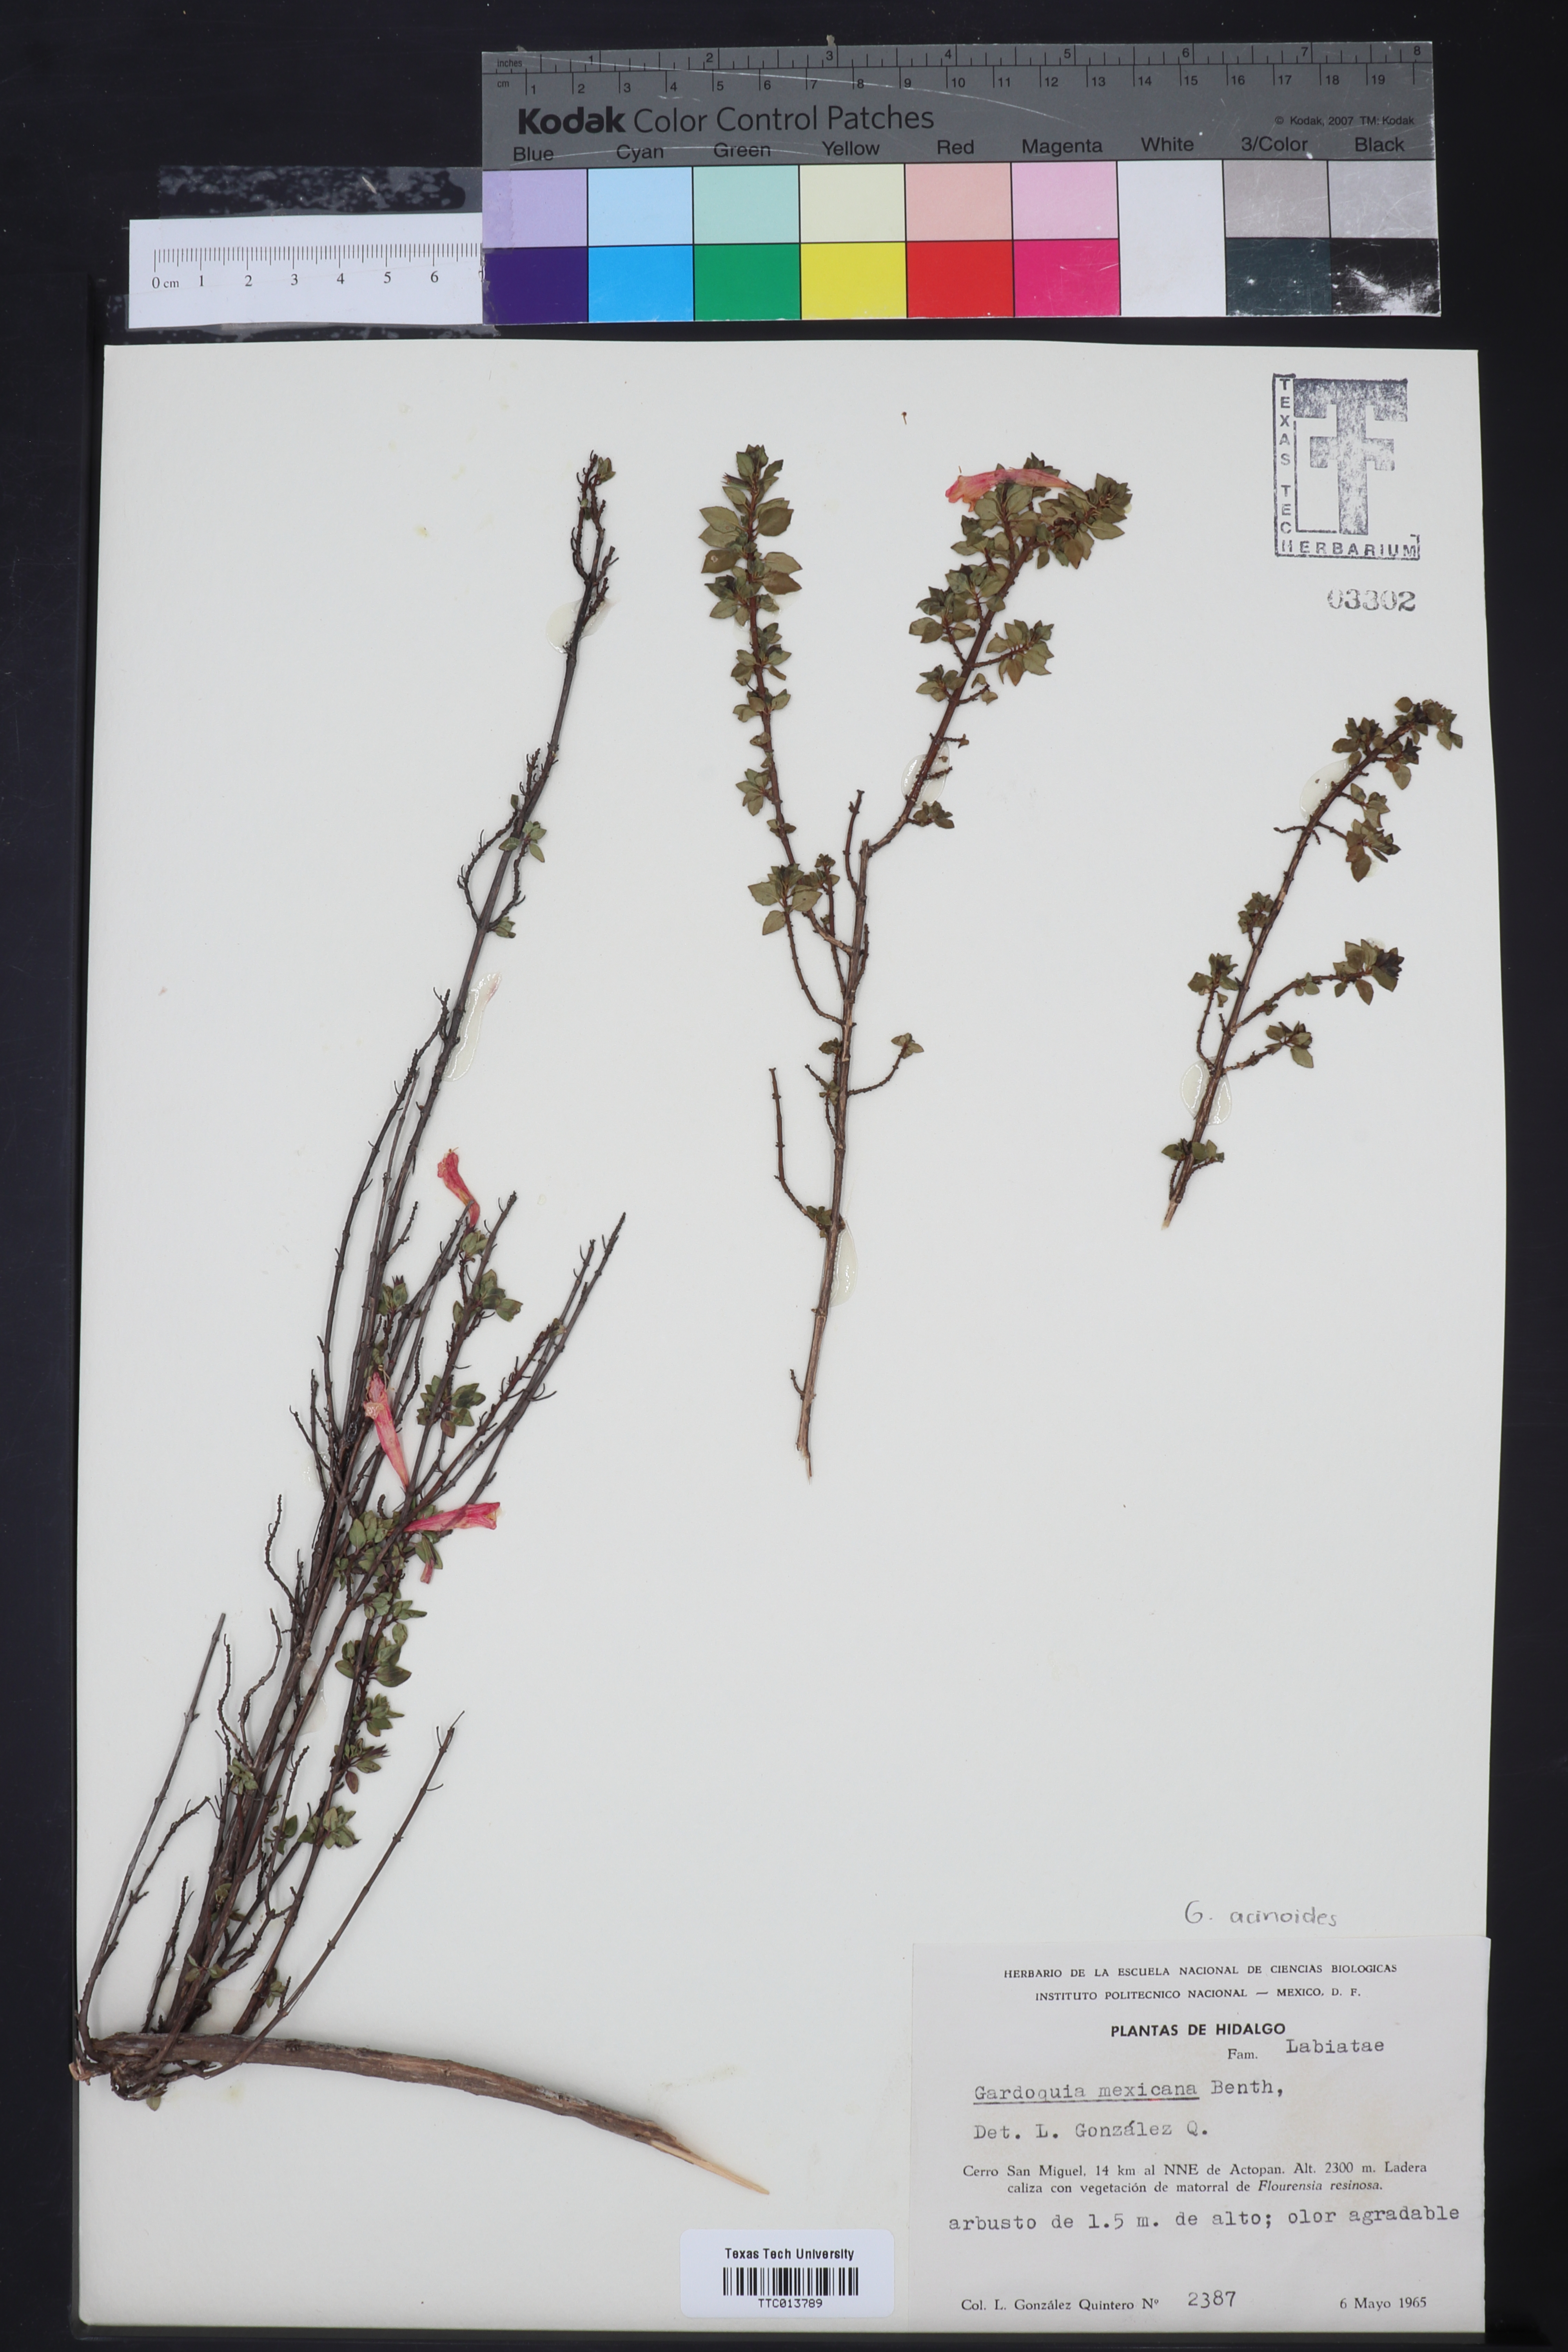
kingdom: Plantae
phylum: Tracheophyta
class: Magnoliopsida
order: Lamiales
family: Lamiaceae
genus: Clinopodium
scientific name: Clinopodium mexicanum
